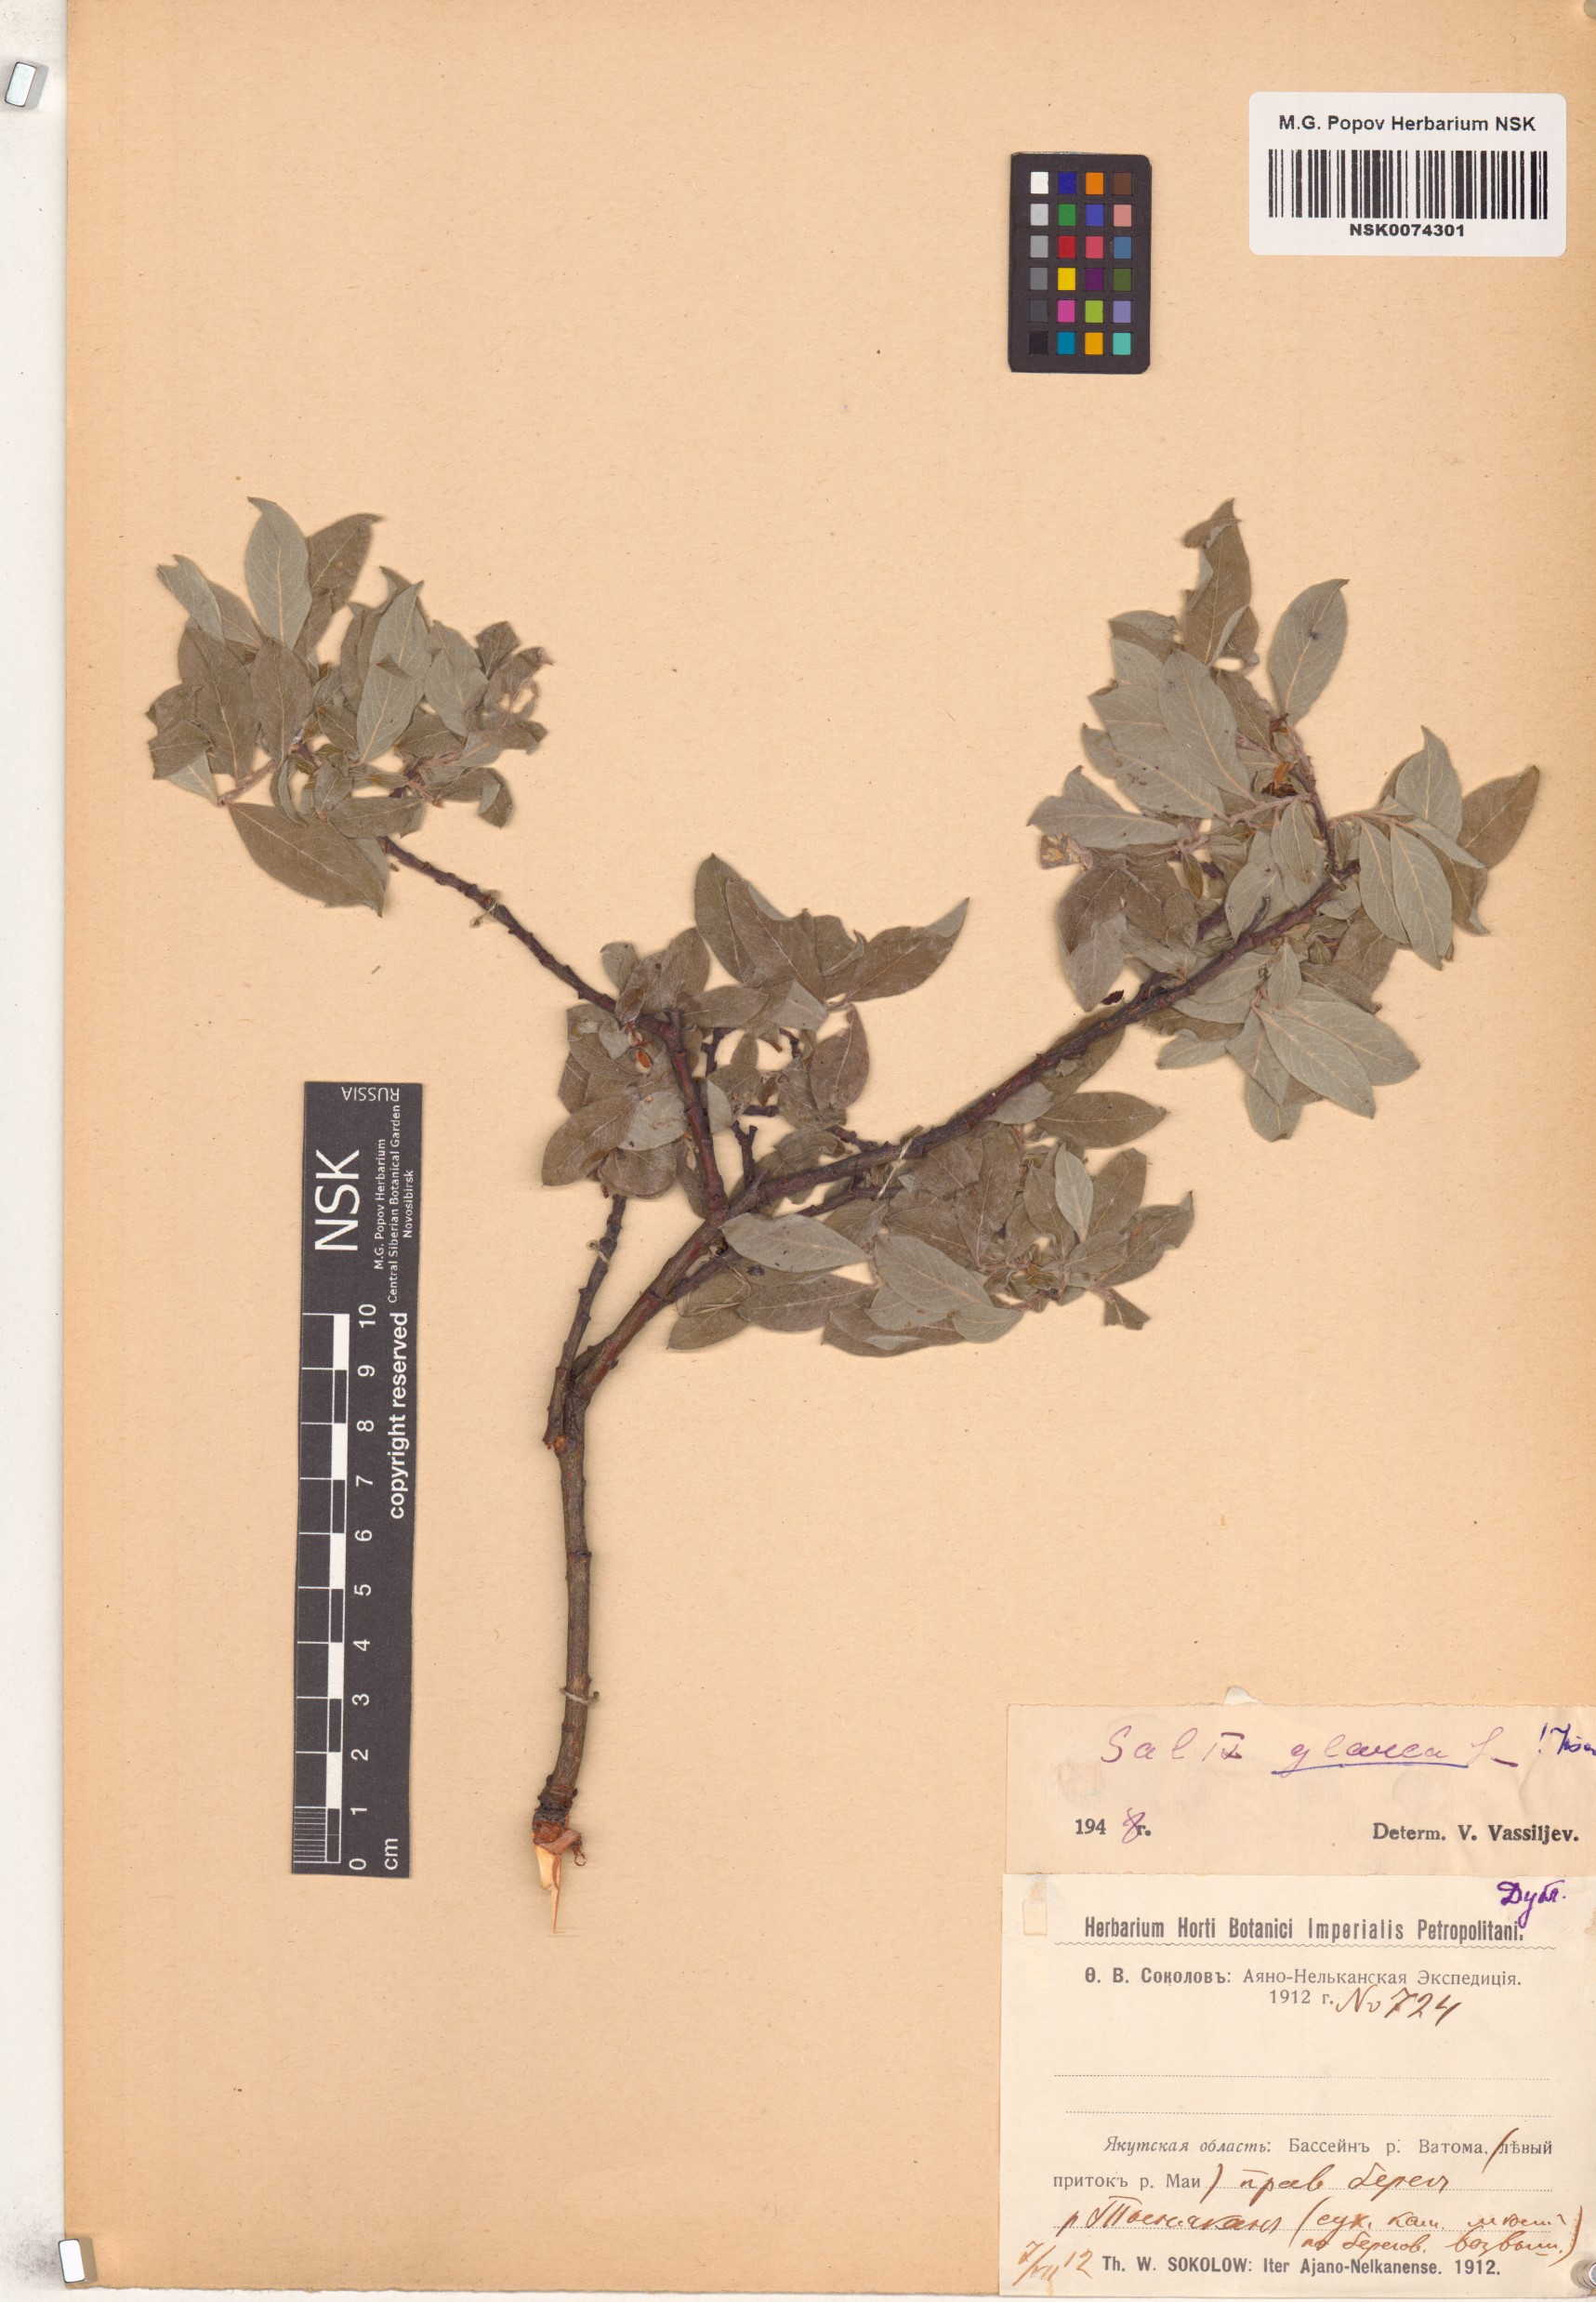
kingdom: Plantae
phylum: Tracheophyta
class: Magnoliopsida
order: Malpighiales
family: Salicaceae
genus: Salix
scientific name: Salix glauca
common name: Glaucous willow
